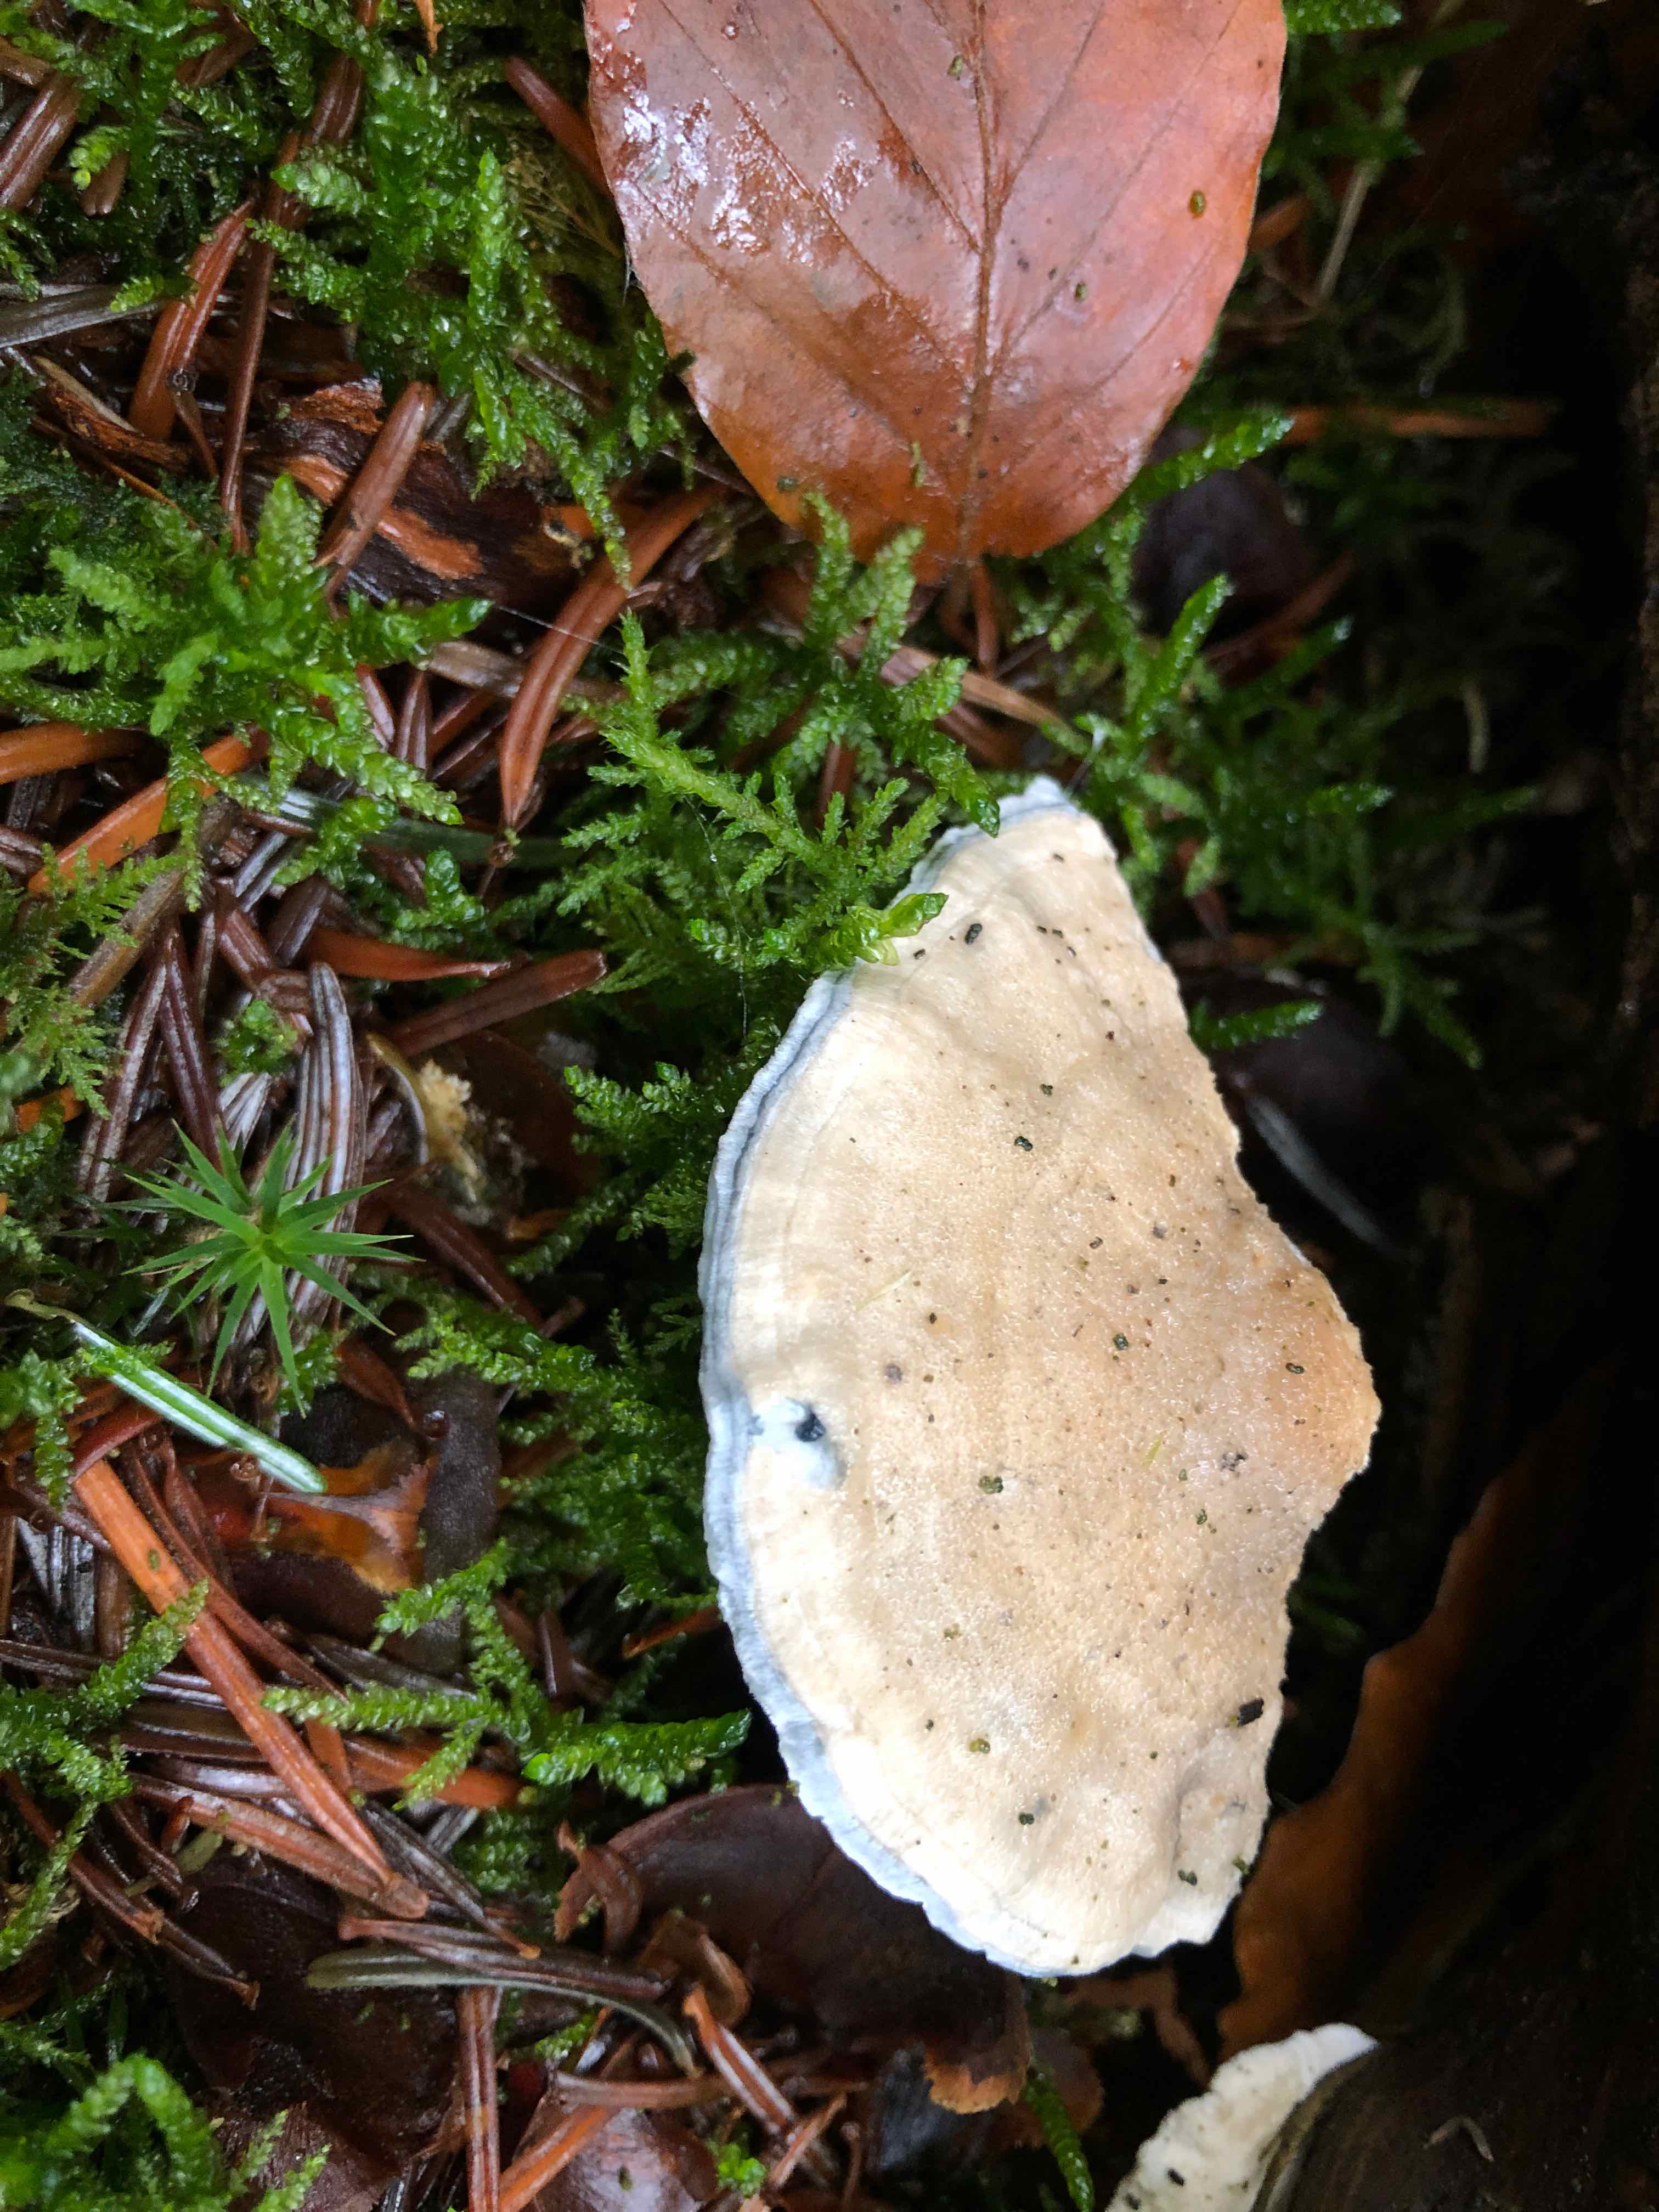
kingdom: Fungi
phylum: Basidiomycota
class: Agaricomycetes
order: Polyporales
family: Polyporaceae
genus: Cyanosporus
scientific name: Cyanosporus caesius
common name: blålig kødporesvamp
